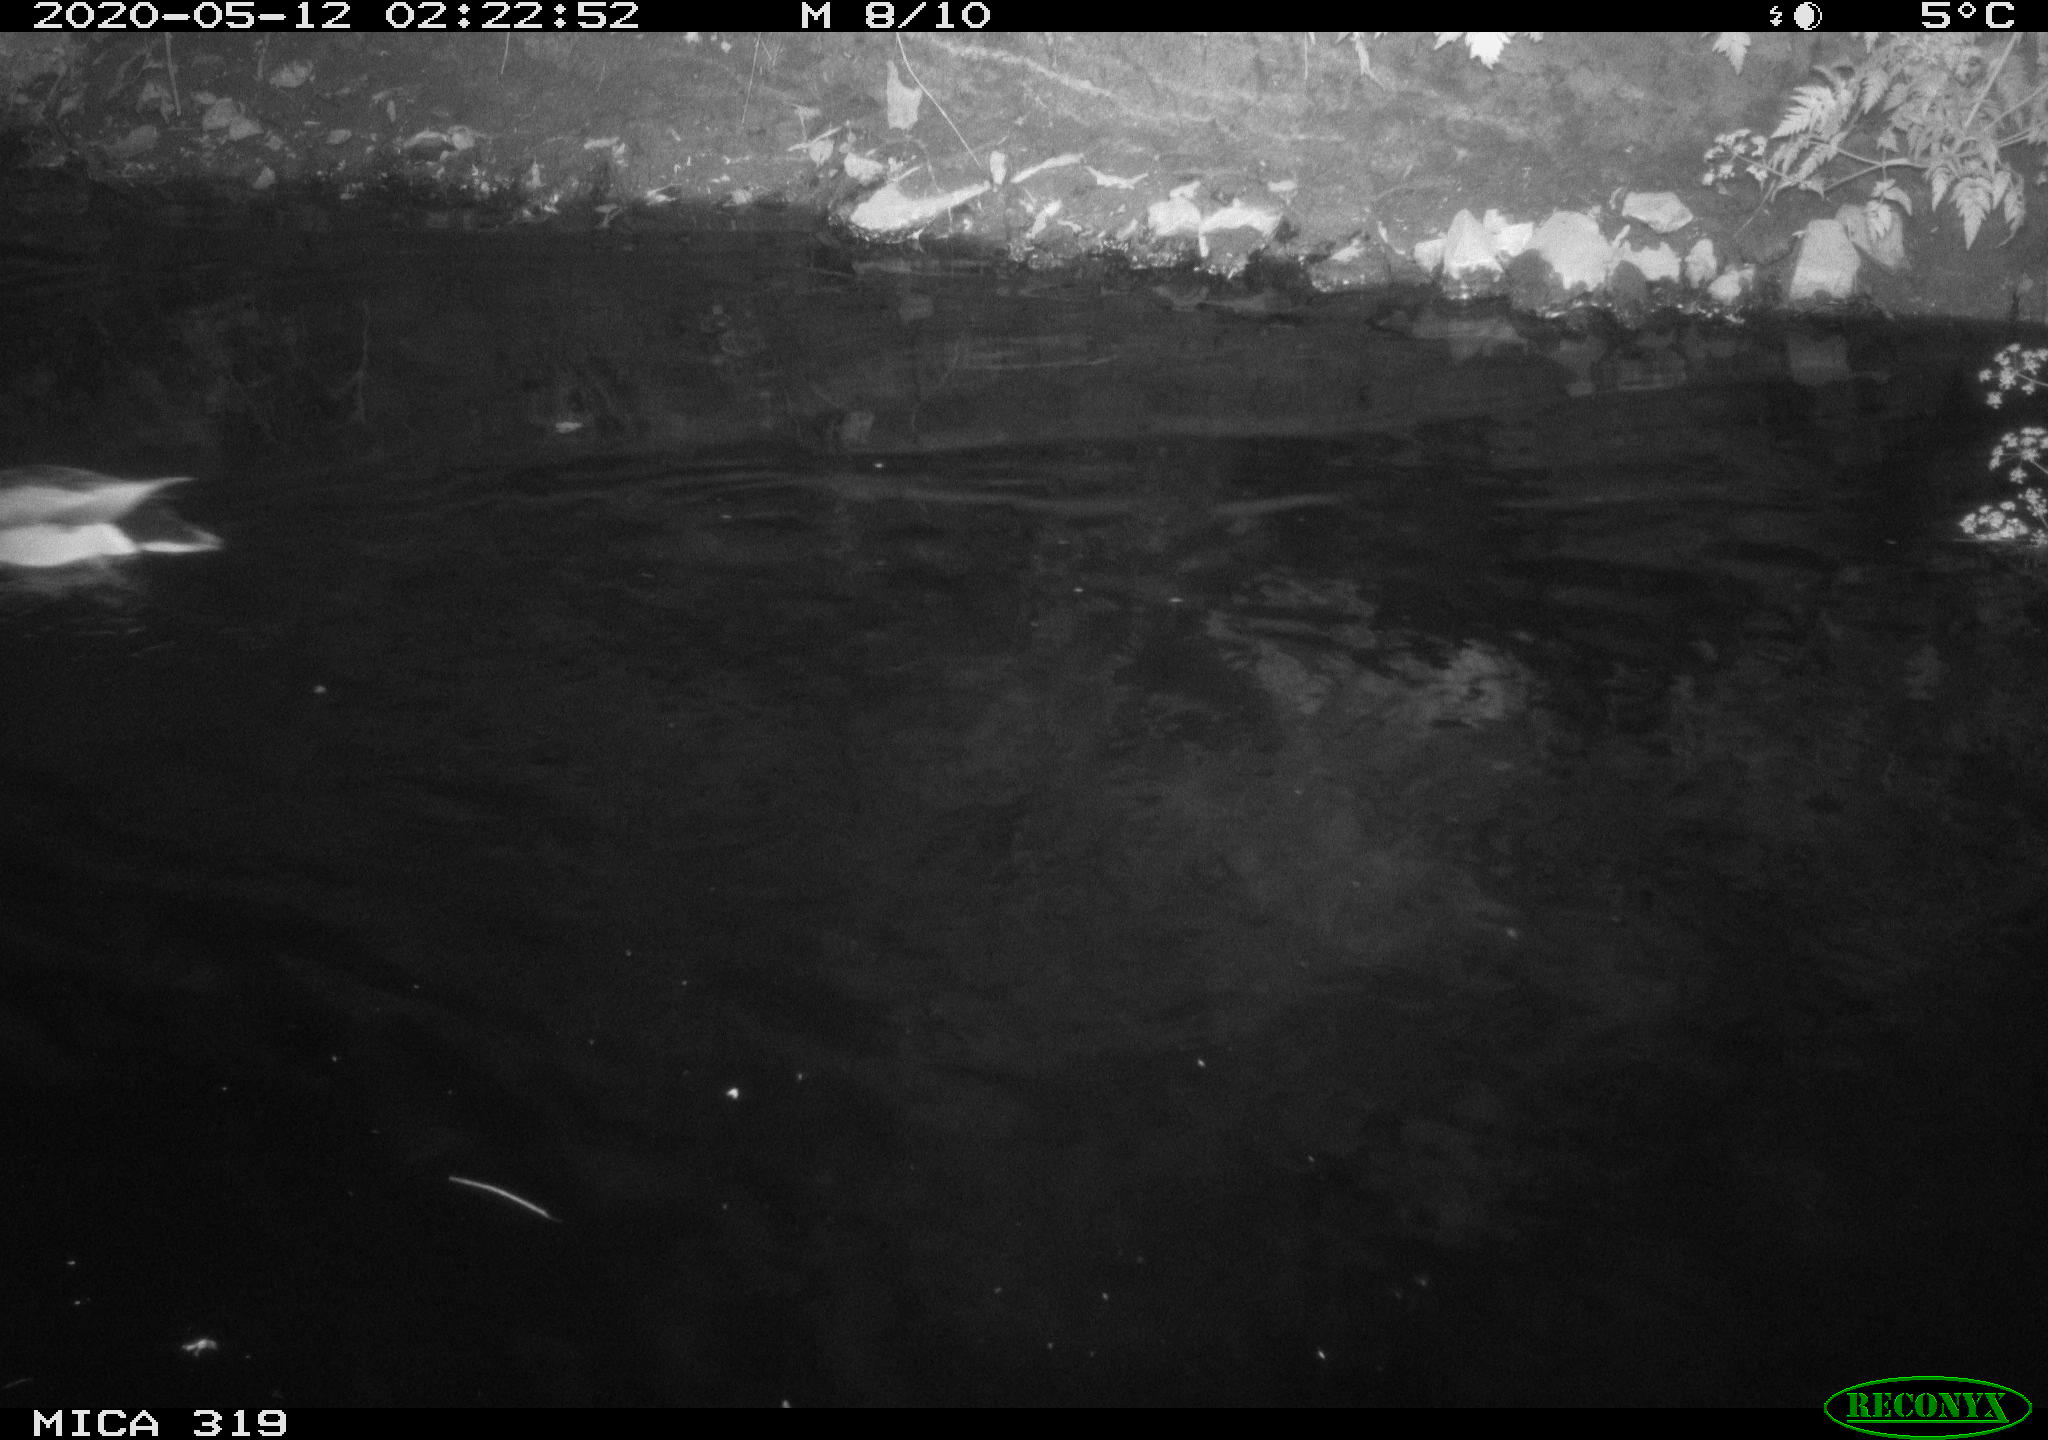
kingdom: Animalia
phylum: Chordata
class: Aves
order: Anseriformes
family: Anatidae
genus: Anas
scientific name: Anas platyrhynchos
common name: Mallard
